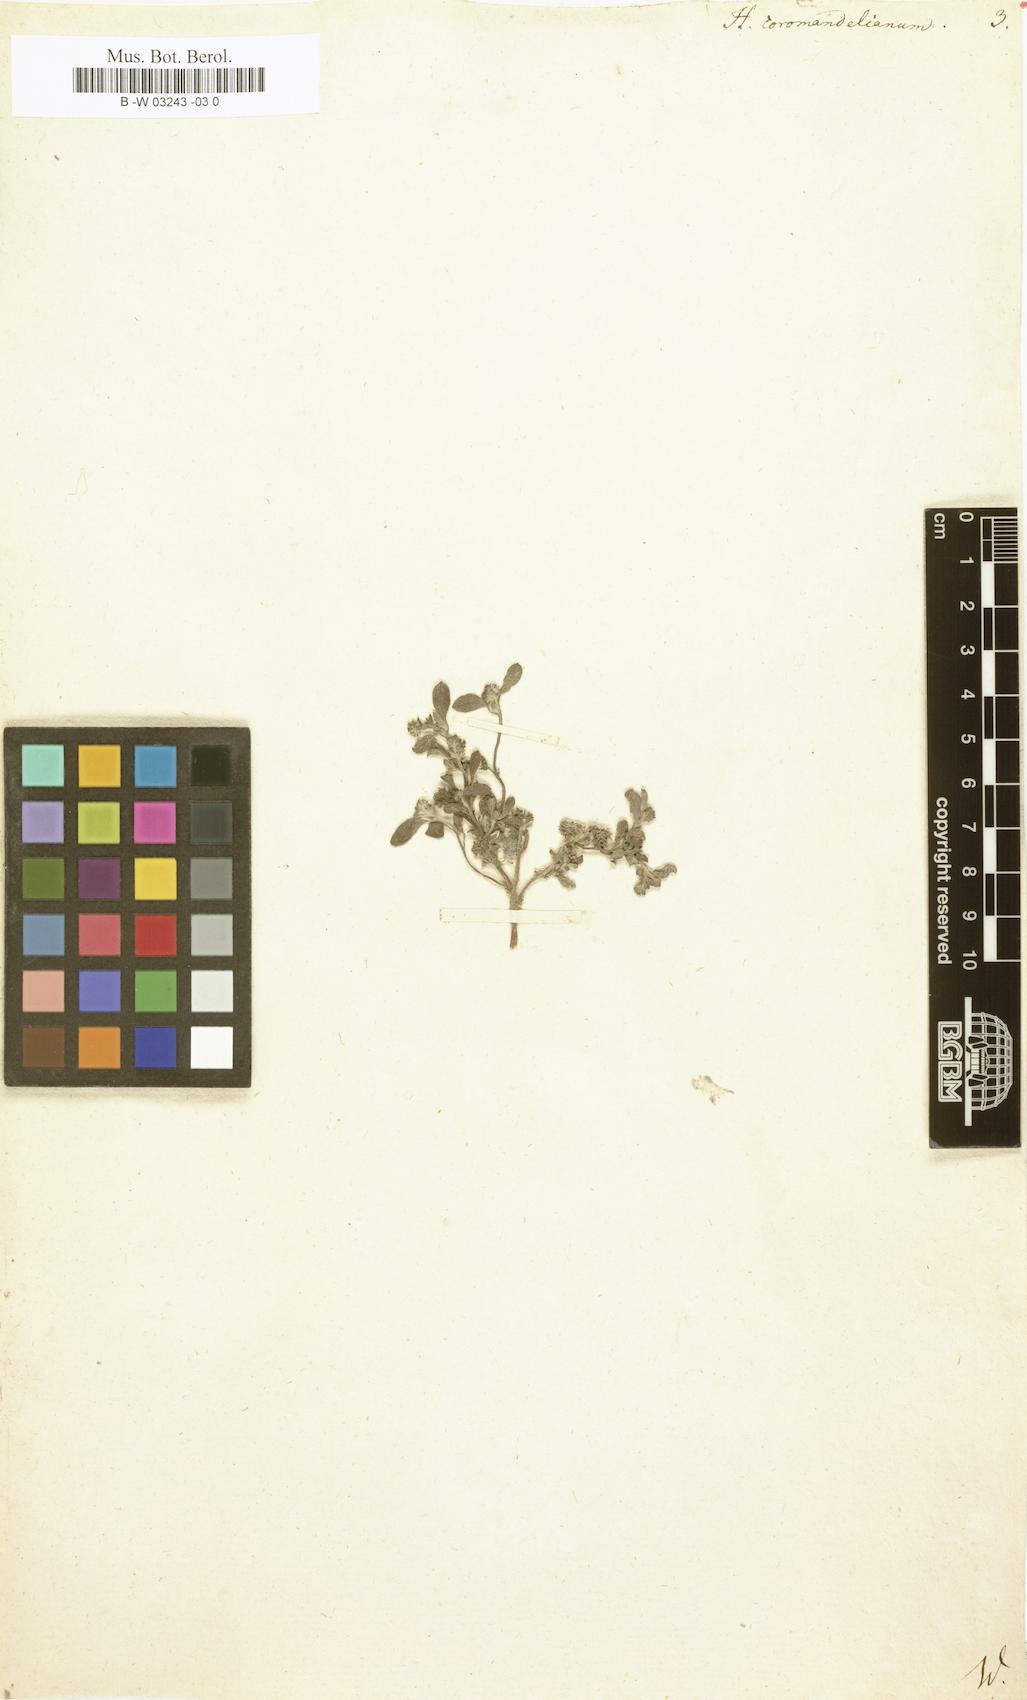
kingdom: Plantae
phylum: Tracheophyta
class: Magnoliopsida
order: Boraginales
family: Heliotropiaceae
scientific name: Heliotropiaceae
